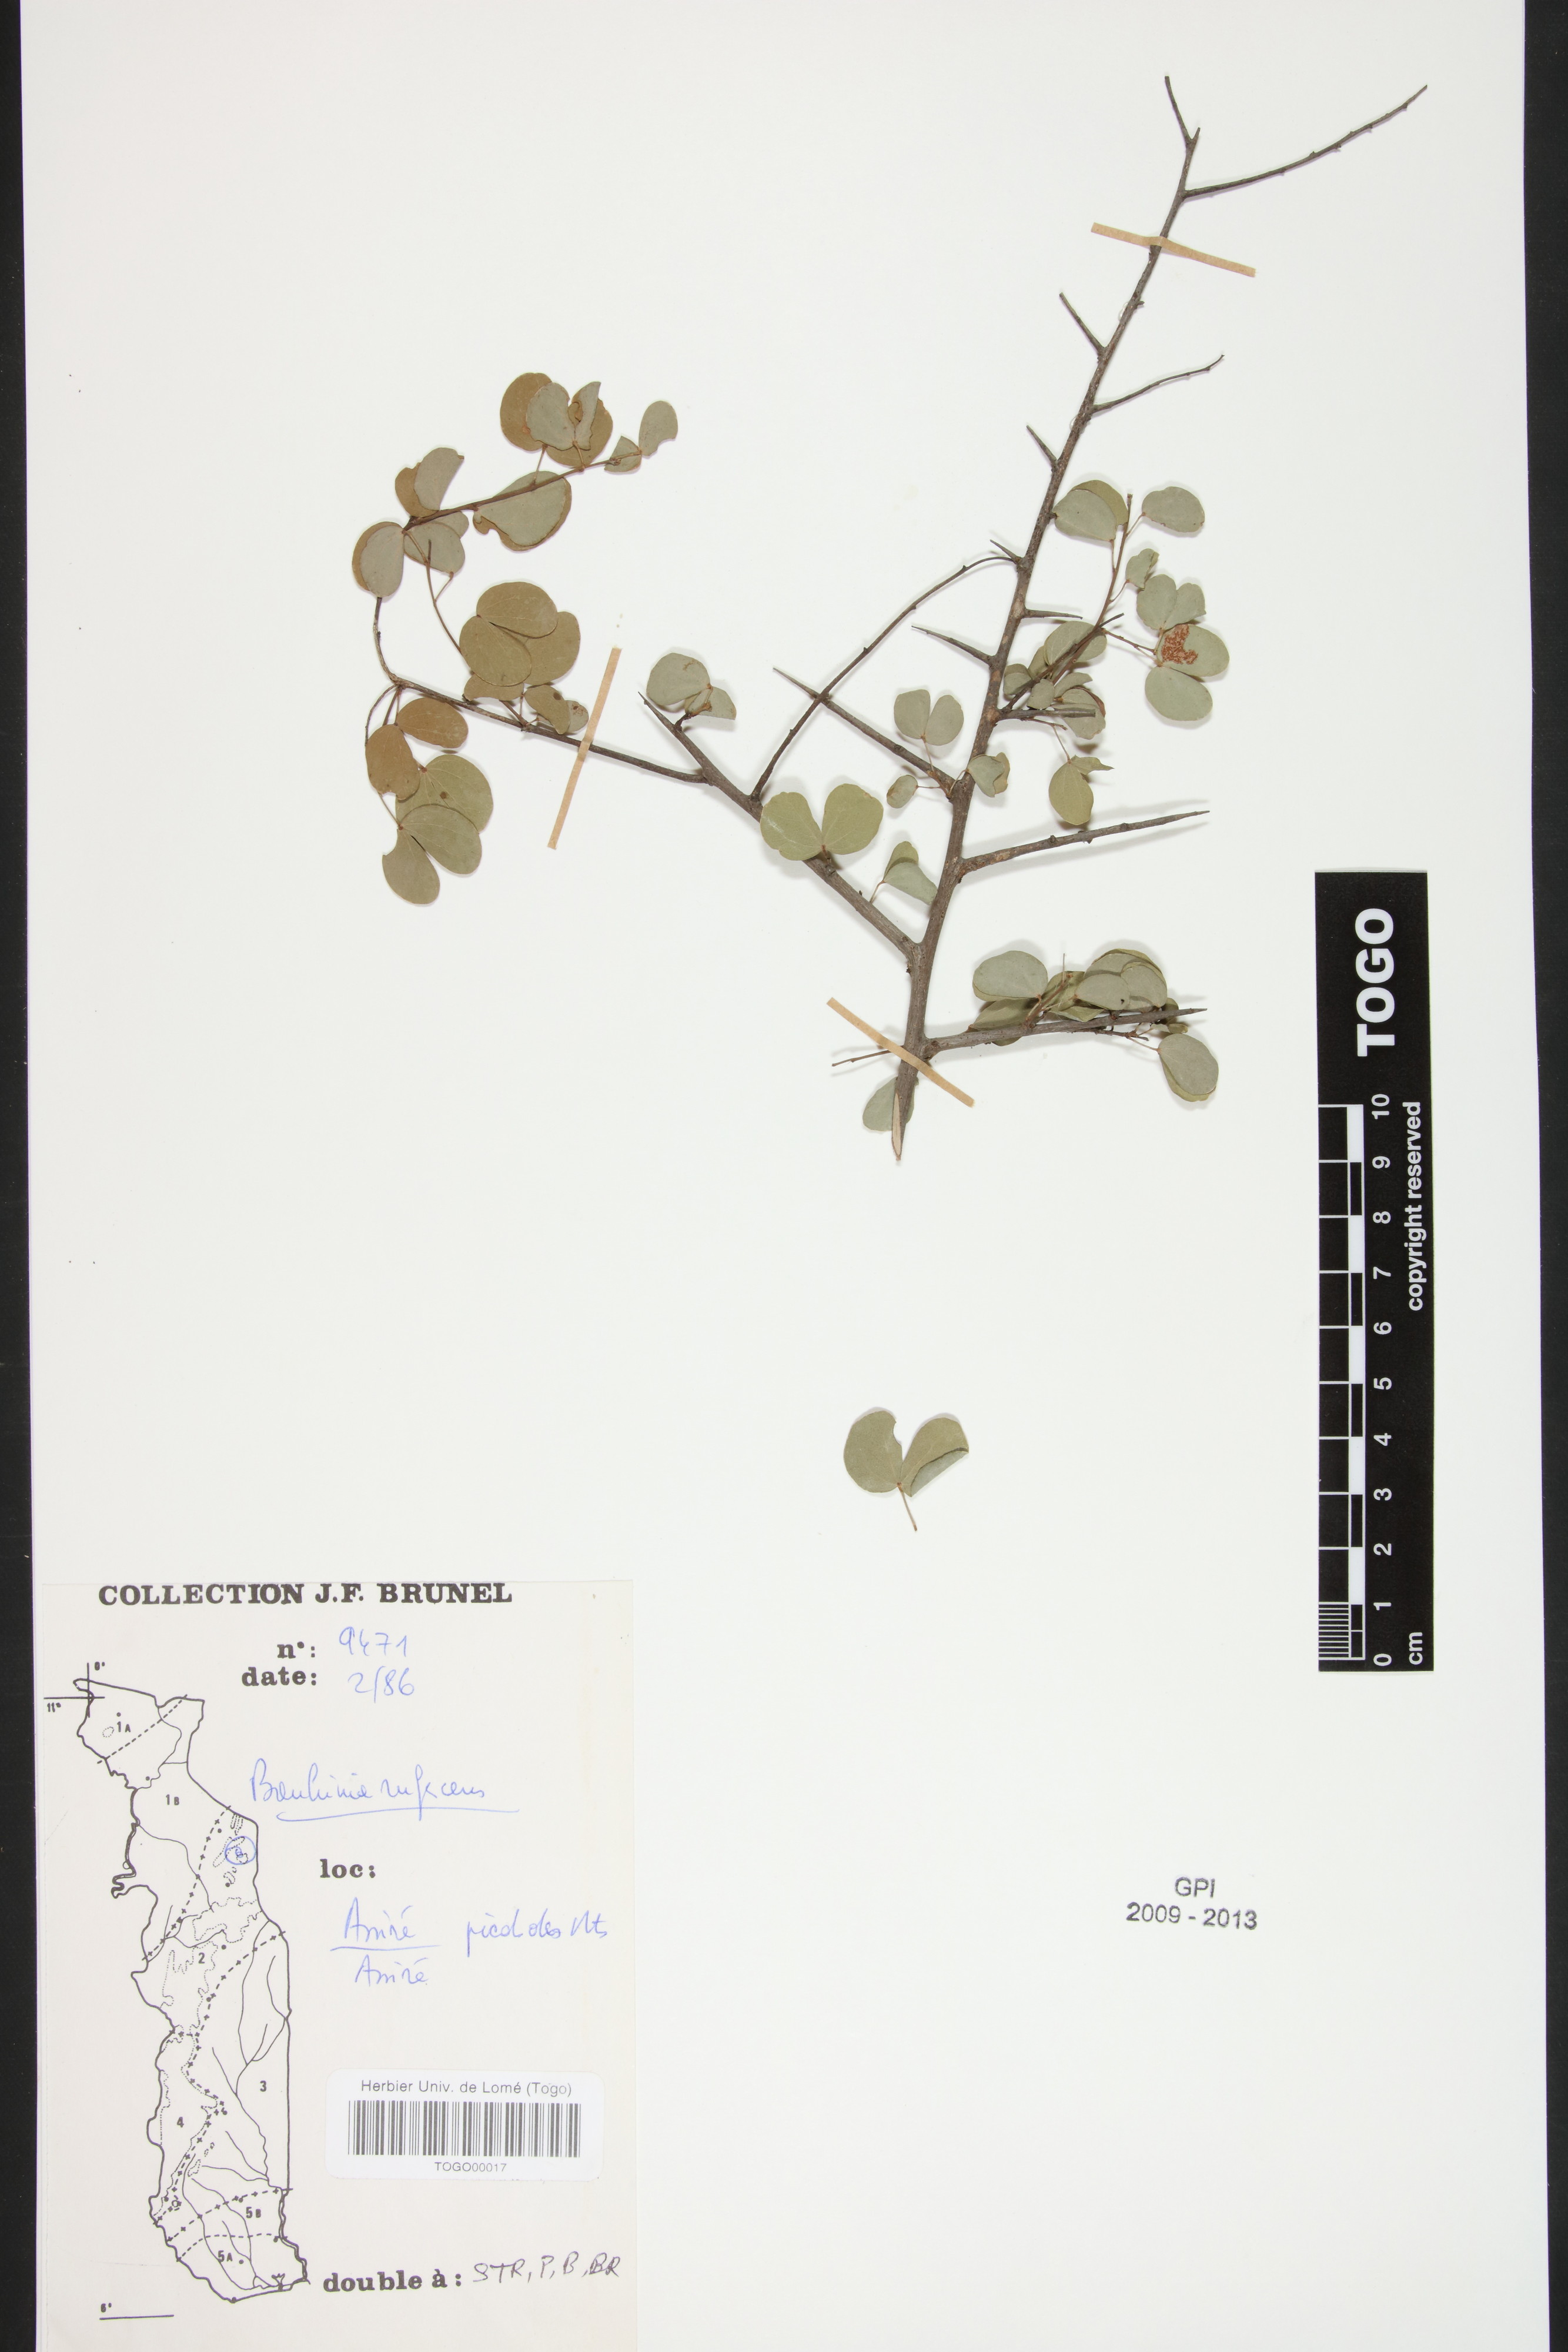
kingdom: Plantae
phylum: Tracheophyta
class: Magnoliopsida
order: Fabales
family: Fabaceae
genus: Bauhinia
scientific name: Bauhinia rufescens
